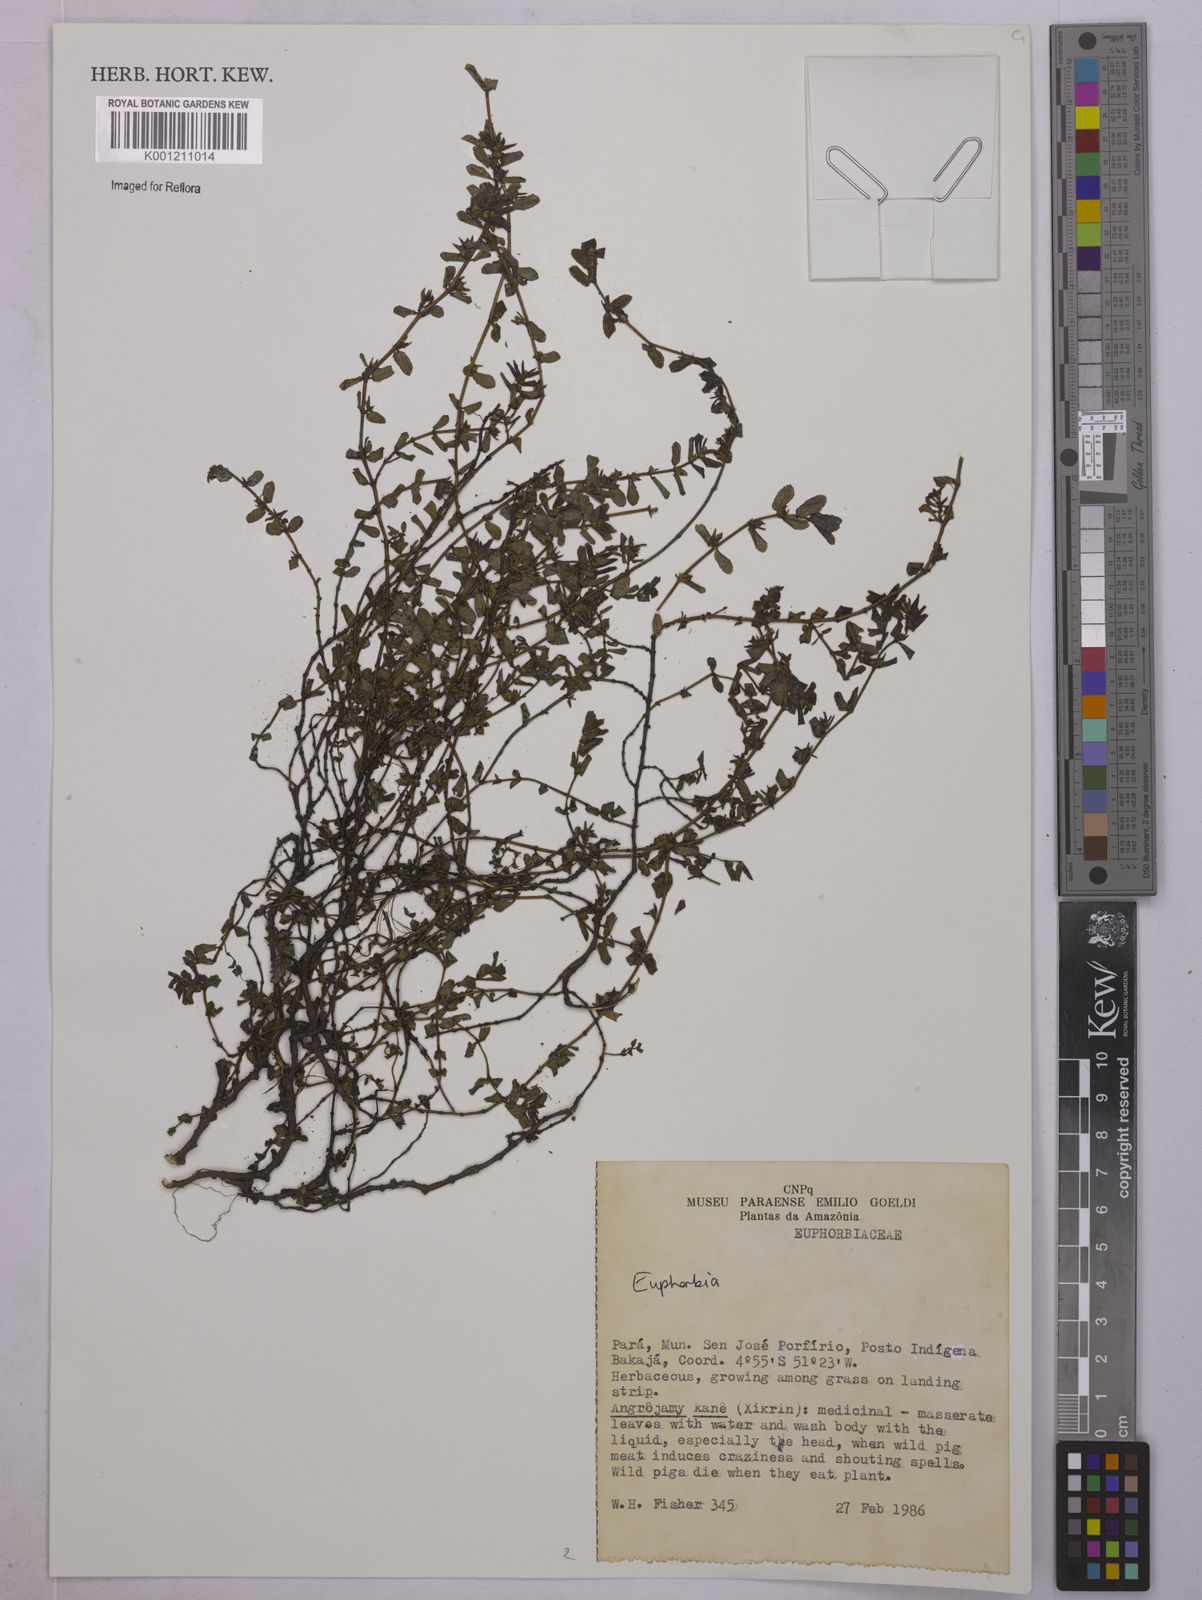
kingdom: Plantae
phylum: Tracheophyta
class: Magnoliopsida
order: Malpighiales
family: Euphorbiaceae
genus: Euphorbia
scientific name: Euphorbia
